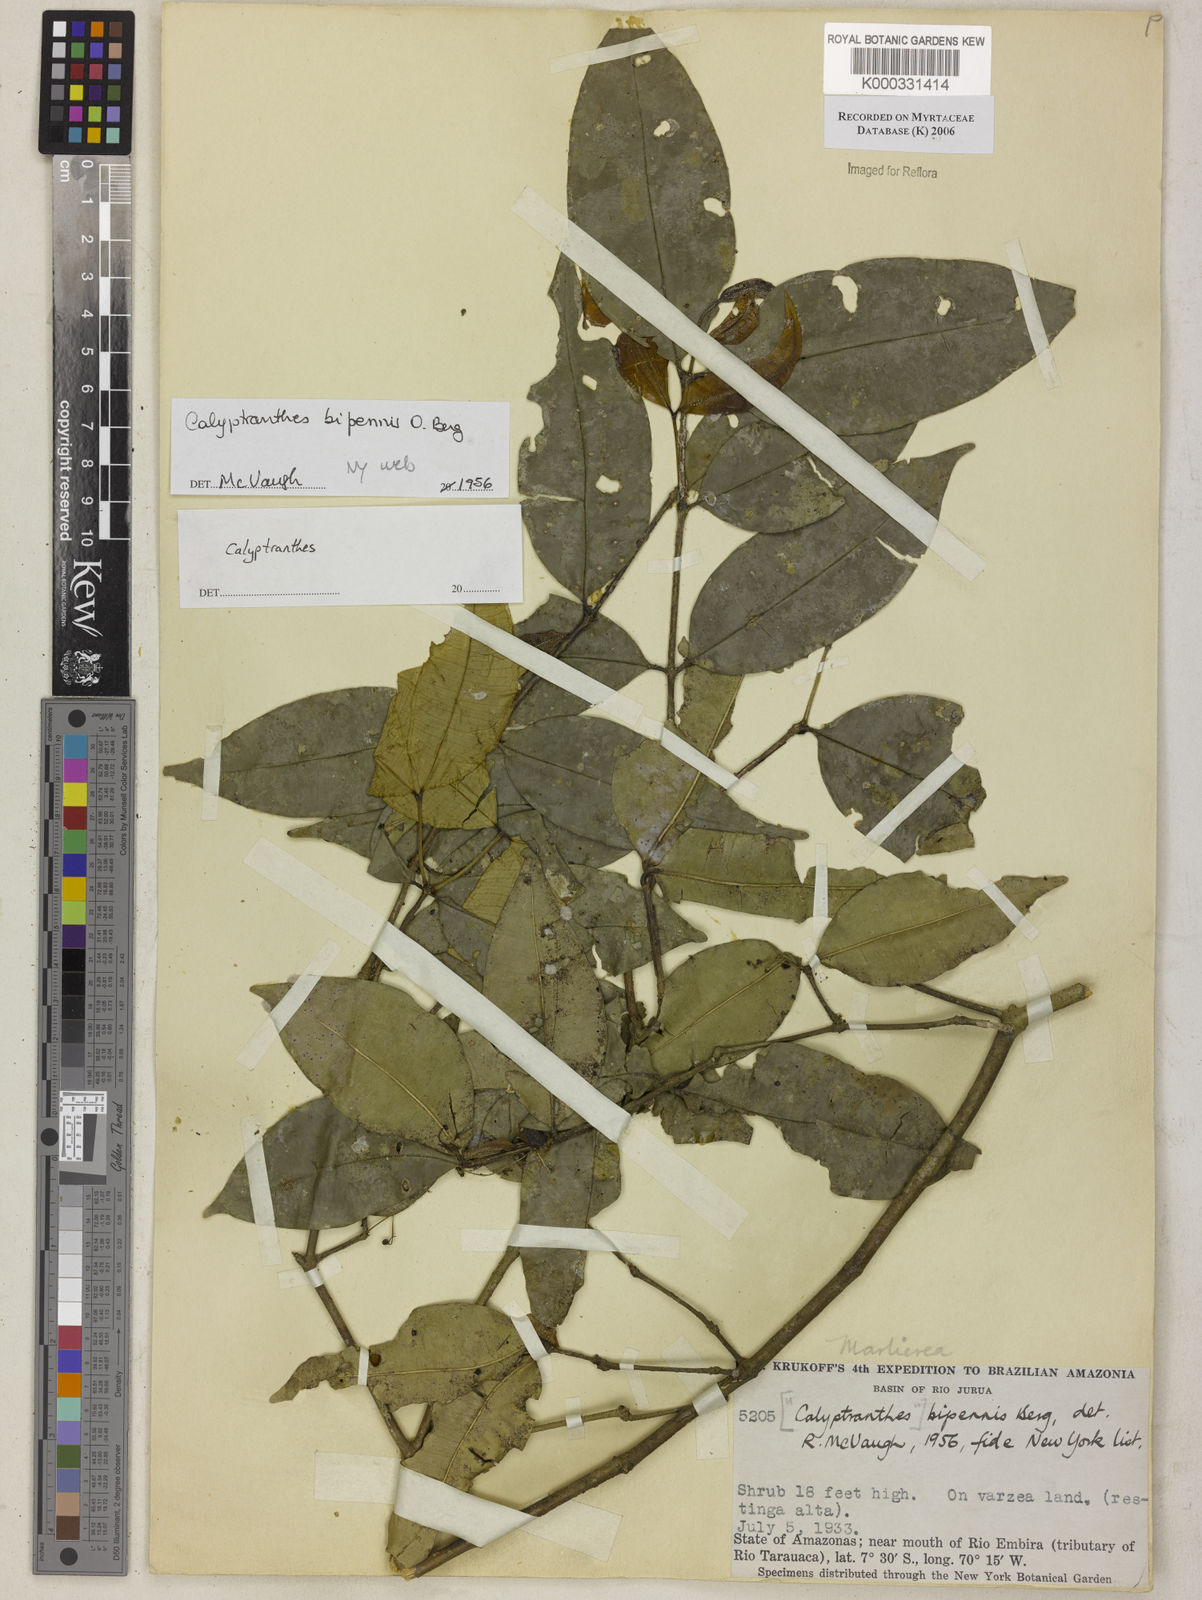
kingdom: Plantae
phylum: Tracheophyta
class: Magnoliopsida
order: Myrtales
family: Myrtaceae
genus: Calyptranthes
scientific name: Calyptranthes
